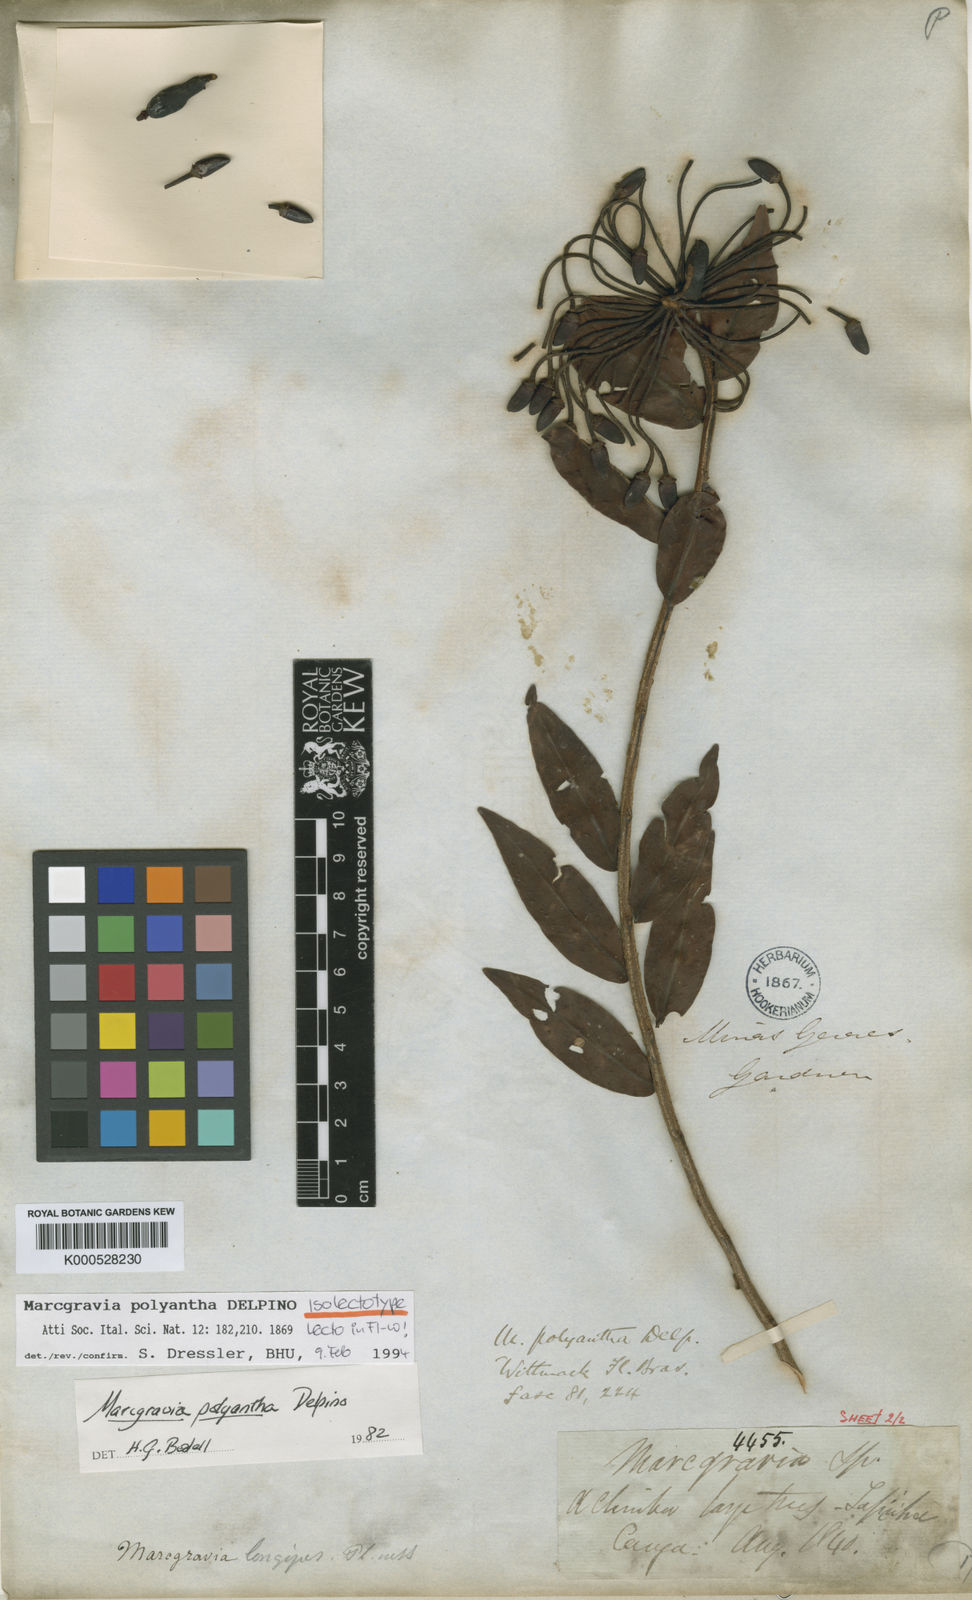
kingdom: Plantae
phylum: Tracheophyta
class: Magnoliopsida
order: Ericales
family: Marcgraviaceae
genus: Marcgravia
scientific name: Marcgravia polyantha
